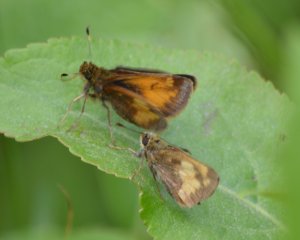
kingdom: Animalia
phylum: Arthropoda
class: Insecta
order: Lepidoptera
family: Hesperiidae
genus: Lon
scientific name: Lon hobomok
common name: Hobomok Skipper
